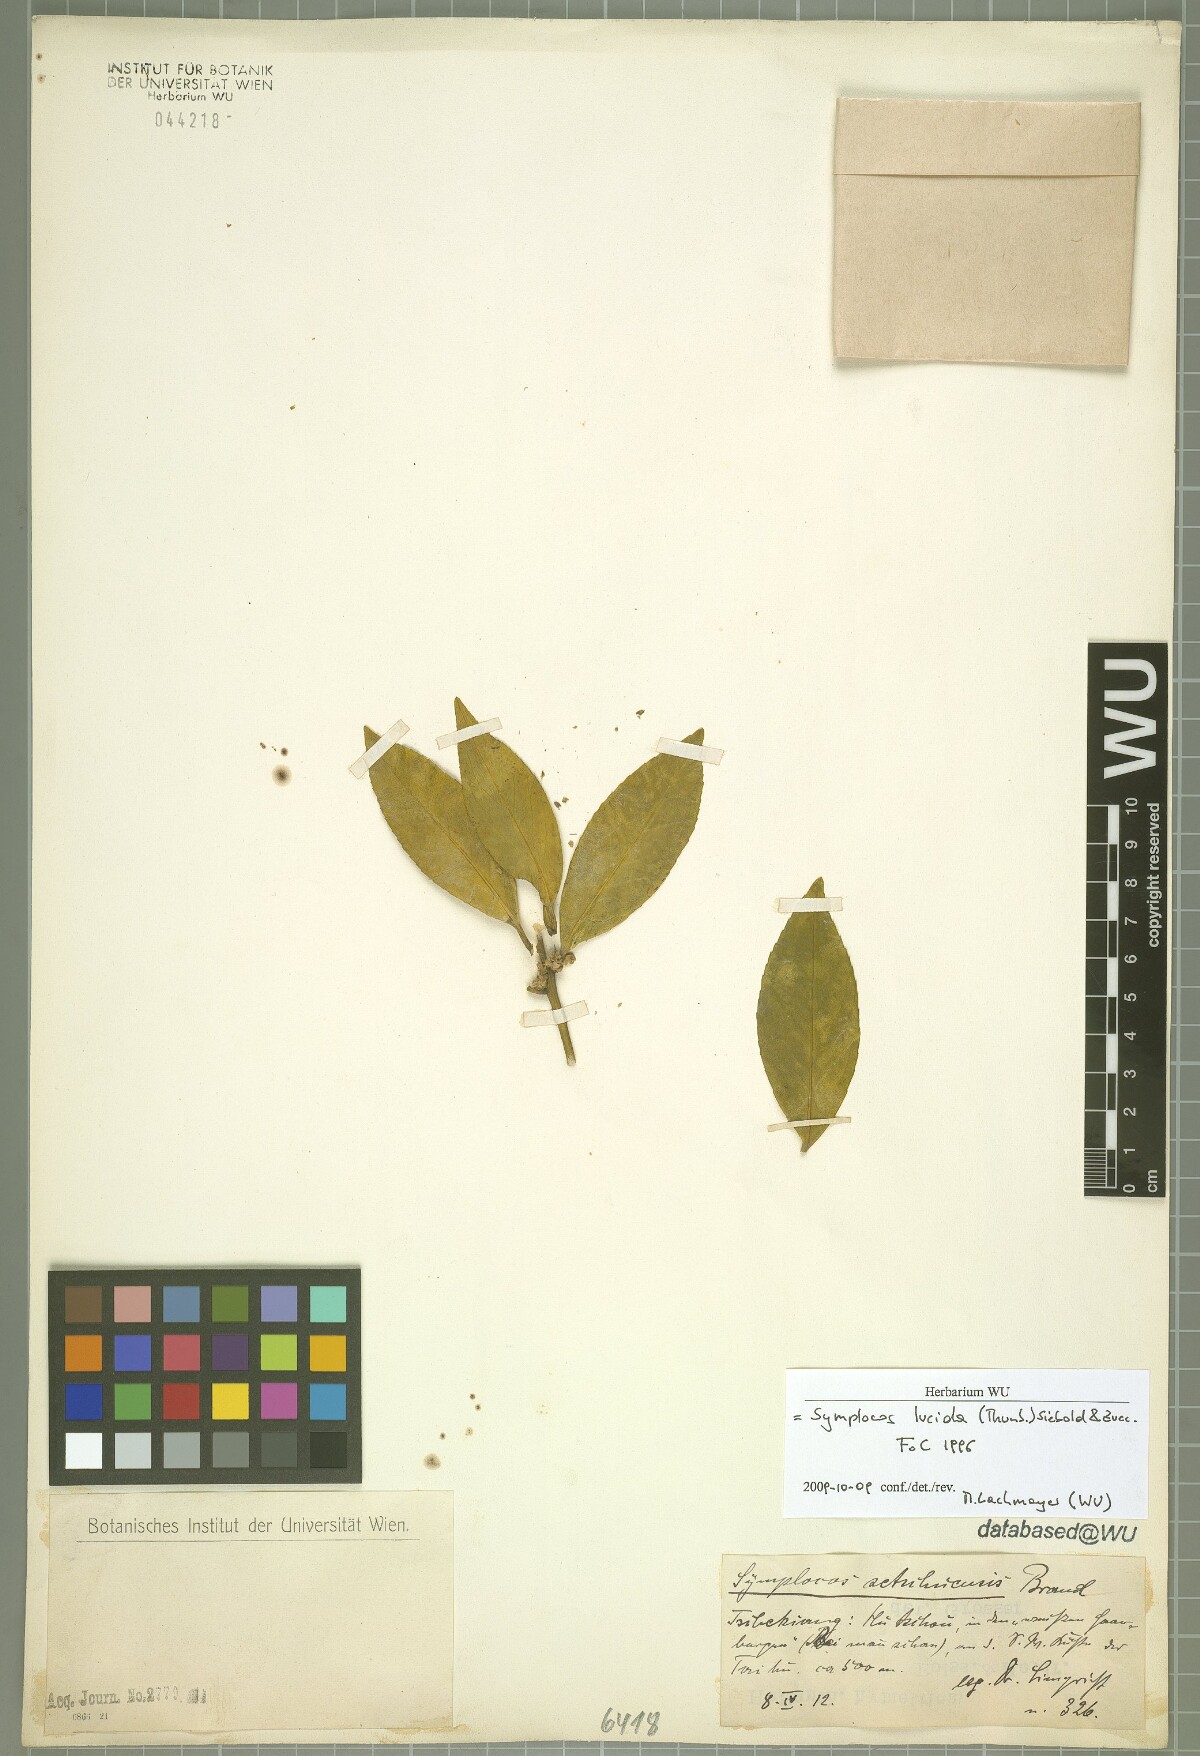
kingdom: Plantae
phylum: Tracheophyta
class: Magnoliopsida
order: Ericales
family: Symplocaceae
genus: Symplocos
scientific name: Symplocos nakaharae
